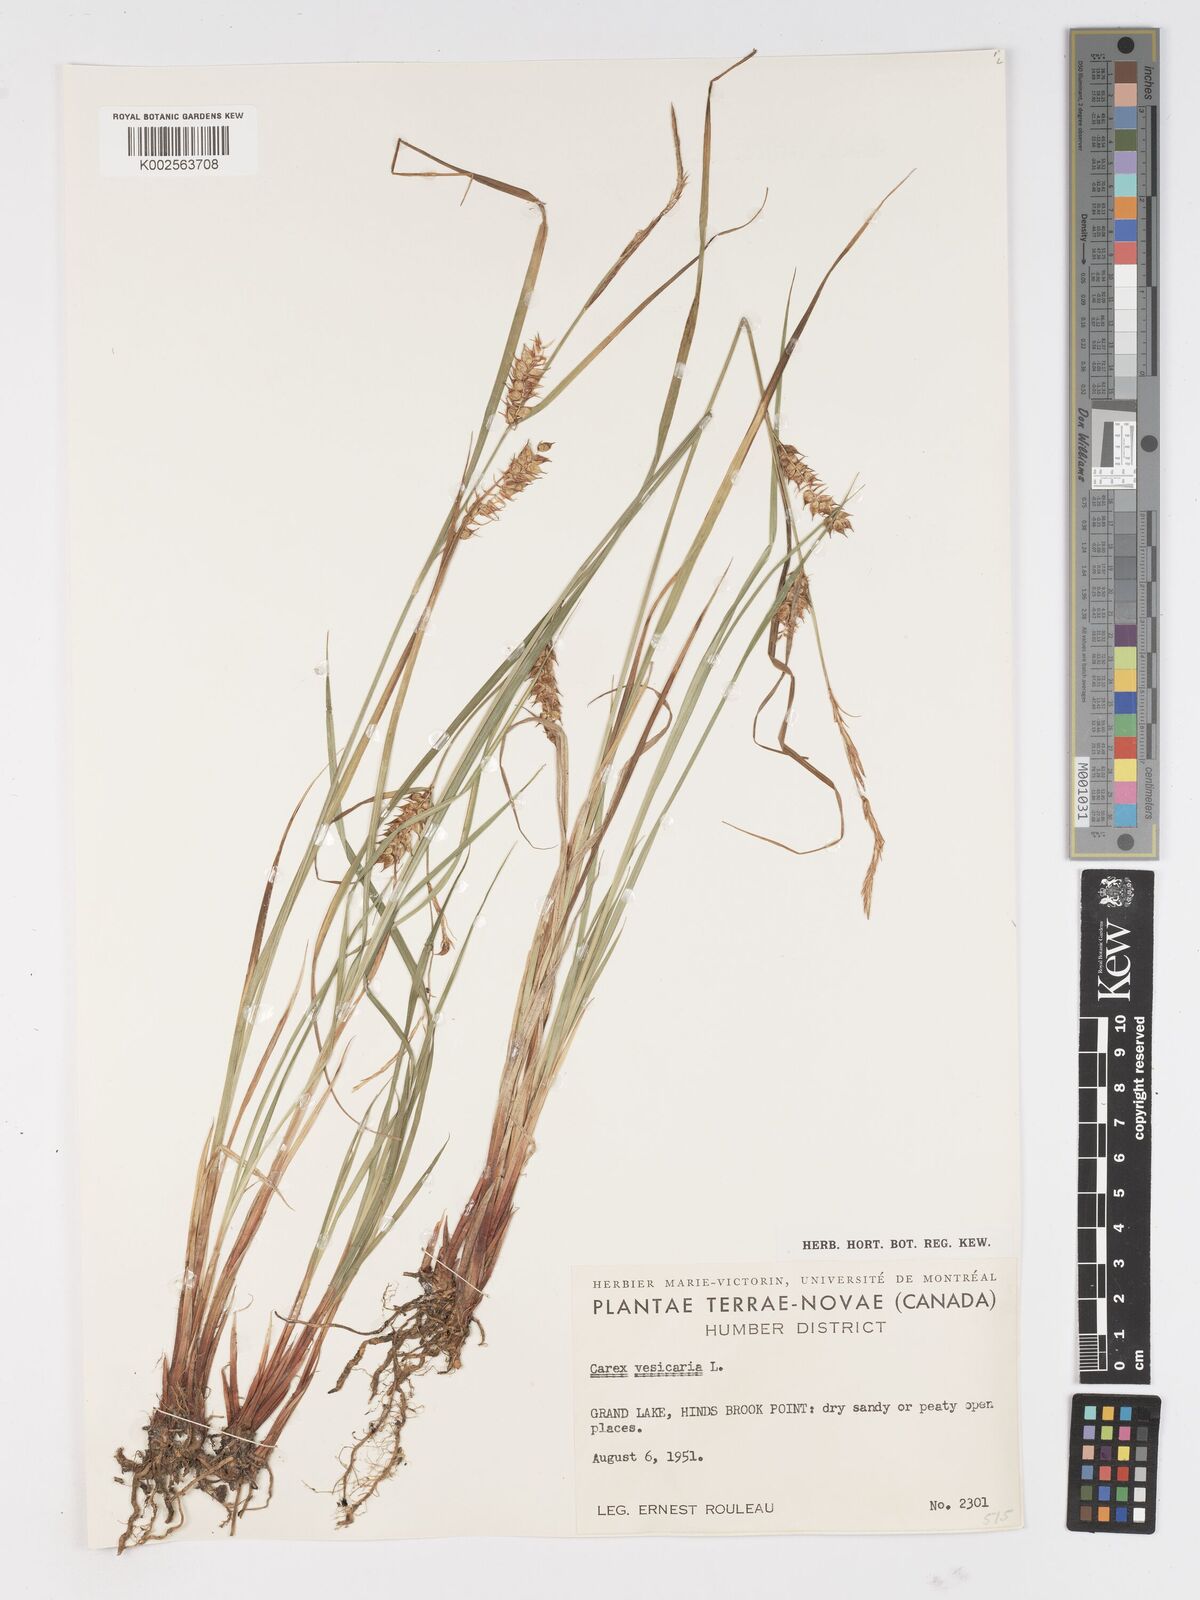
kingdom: Plantae
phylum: Tracheophyta
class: Liliopsida
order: Poales
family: Cyperaceae
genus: Carex
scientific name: Carex vesicaria
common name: Bladder-sedge
